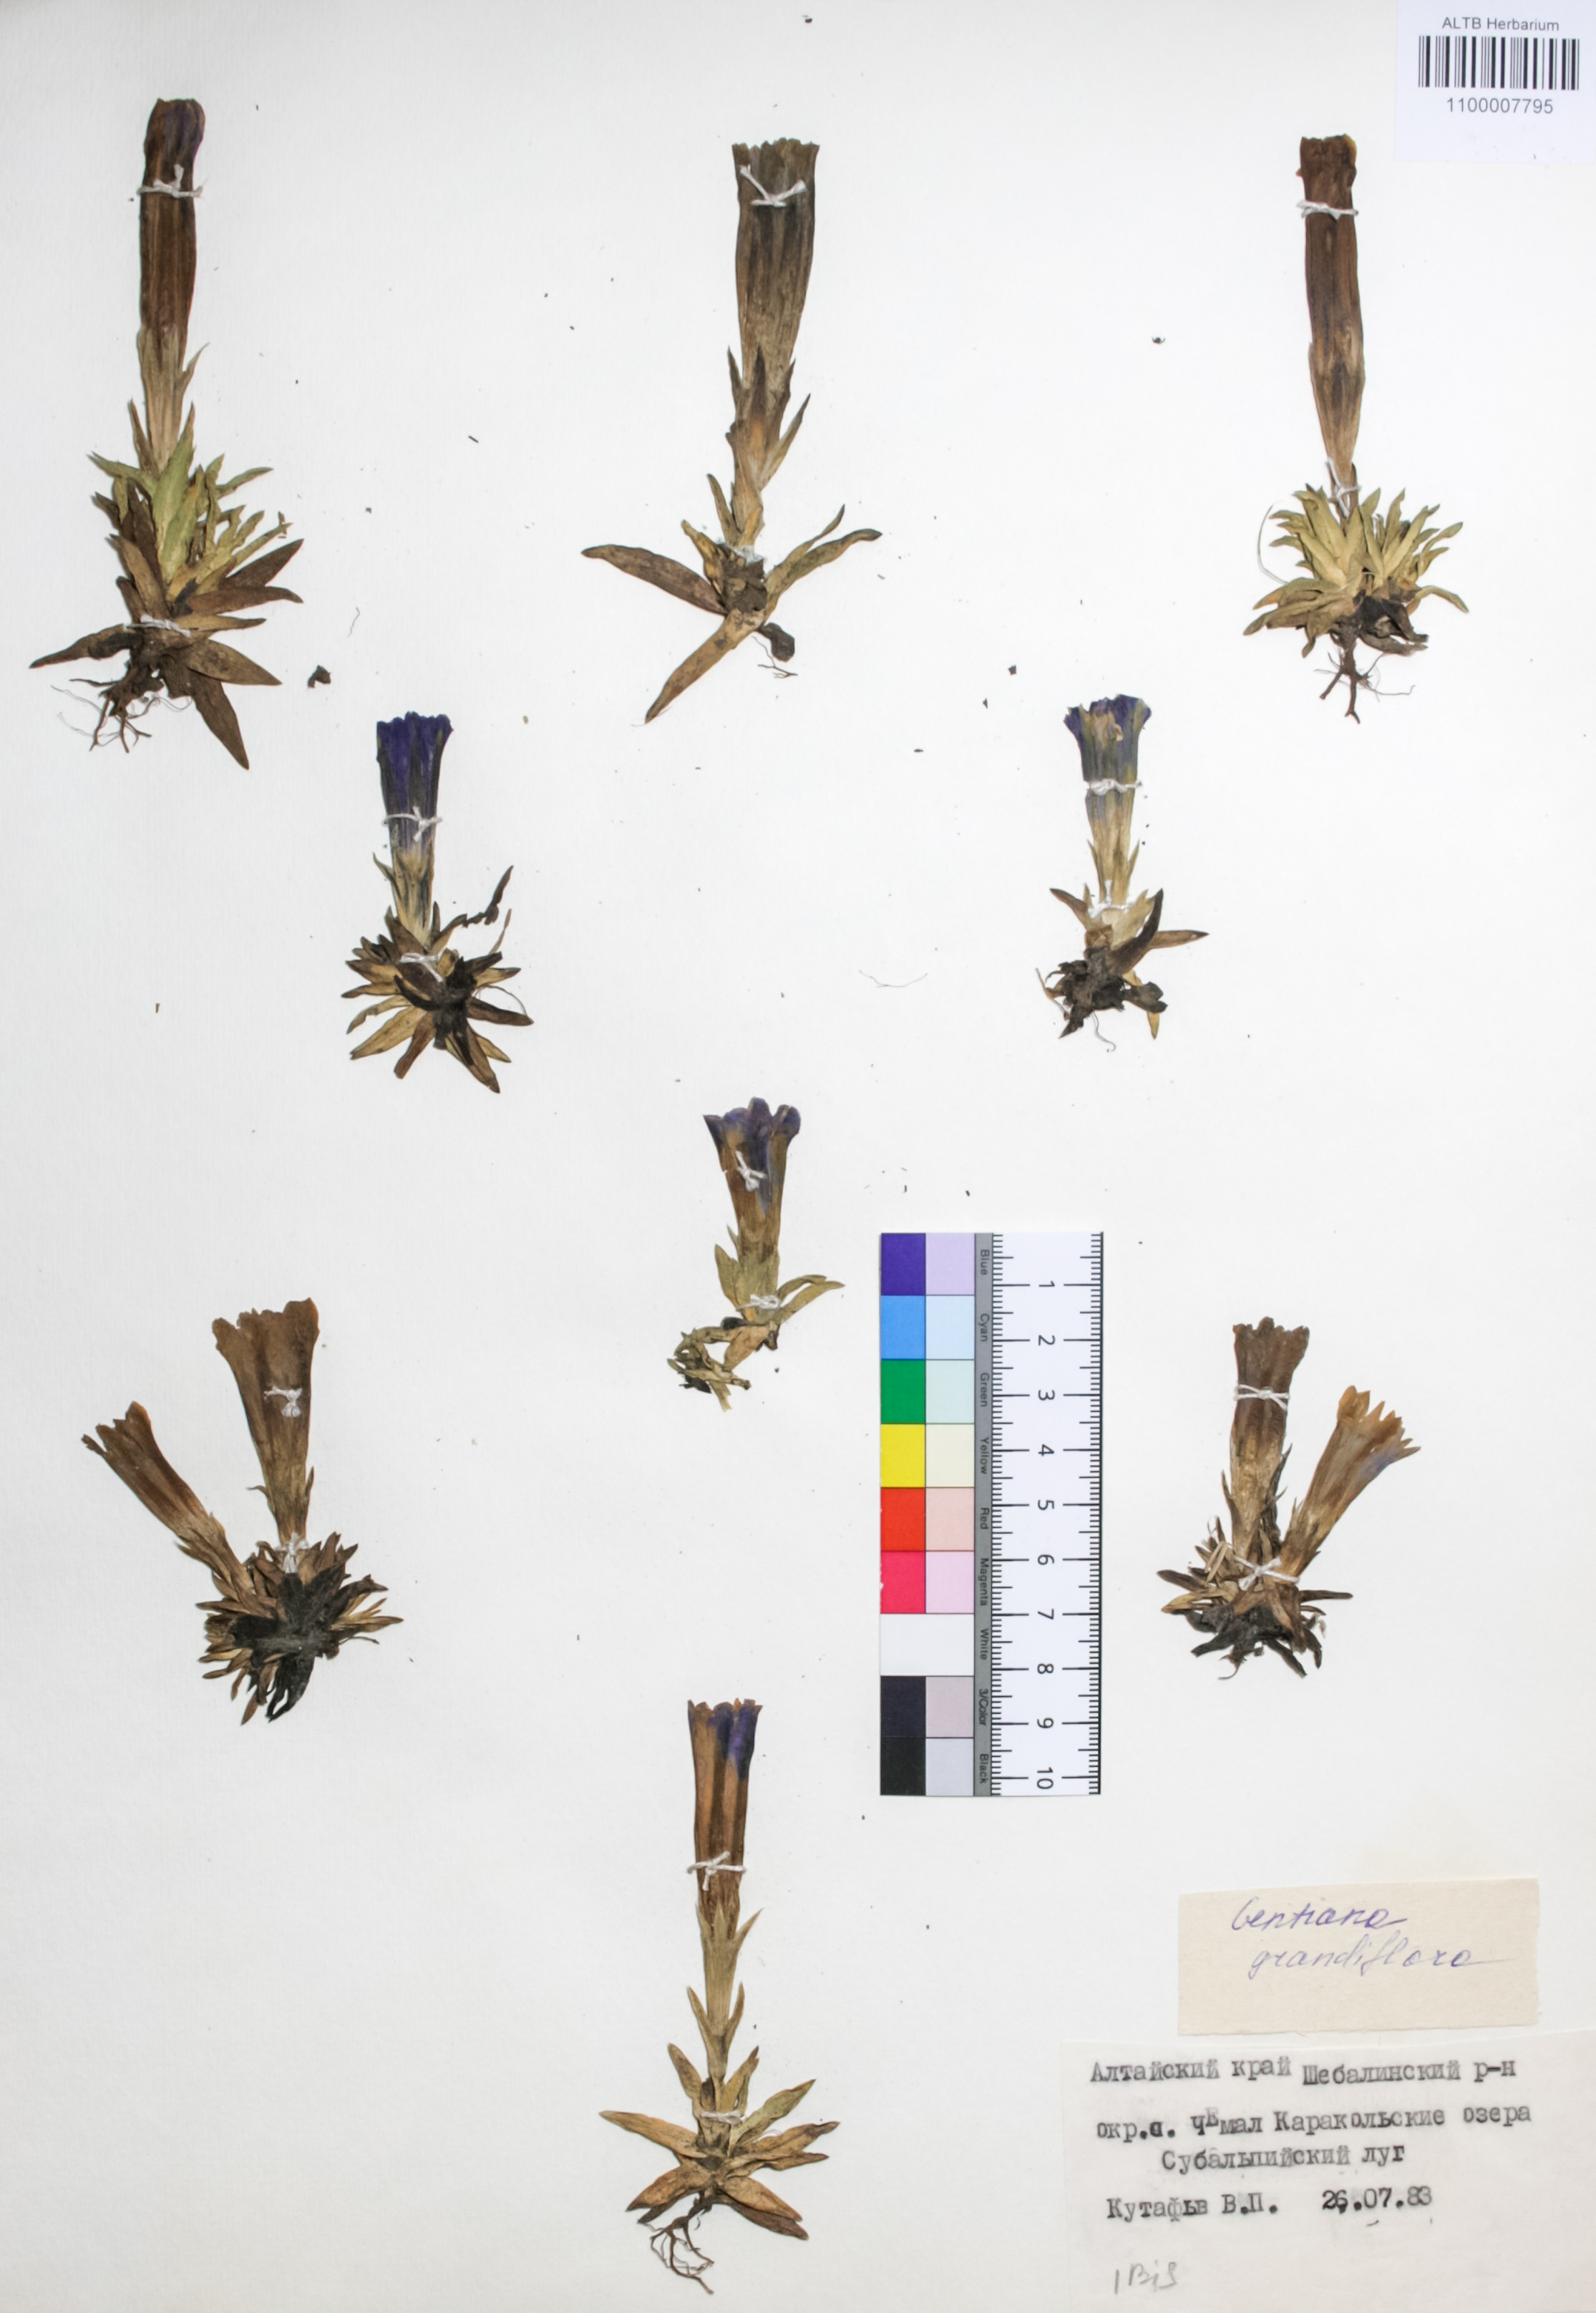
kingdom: Plantae
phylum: Tracheophyta
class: Magnoliopsida
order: Gentianales
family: Gentianaceae
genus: Gentiana
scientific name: Gentiana grandiflora
